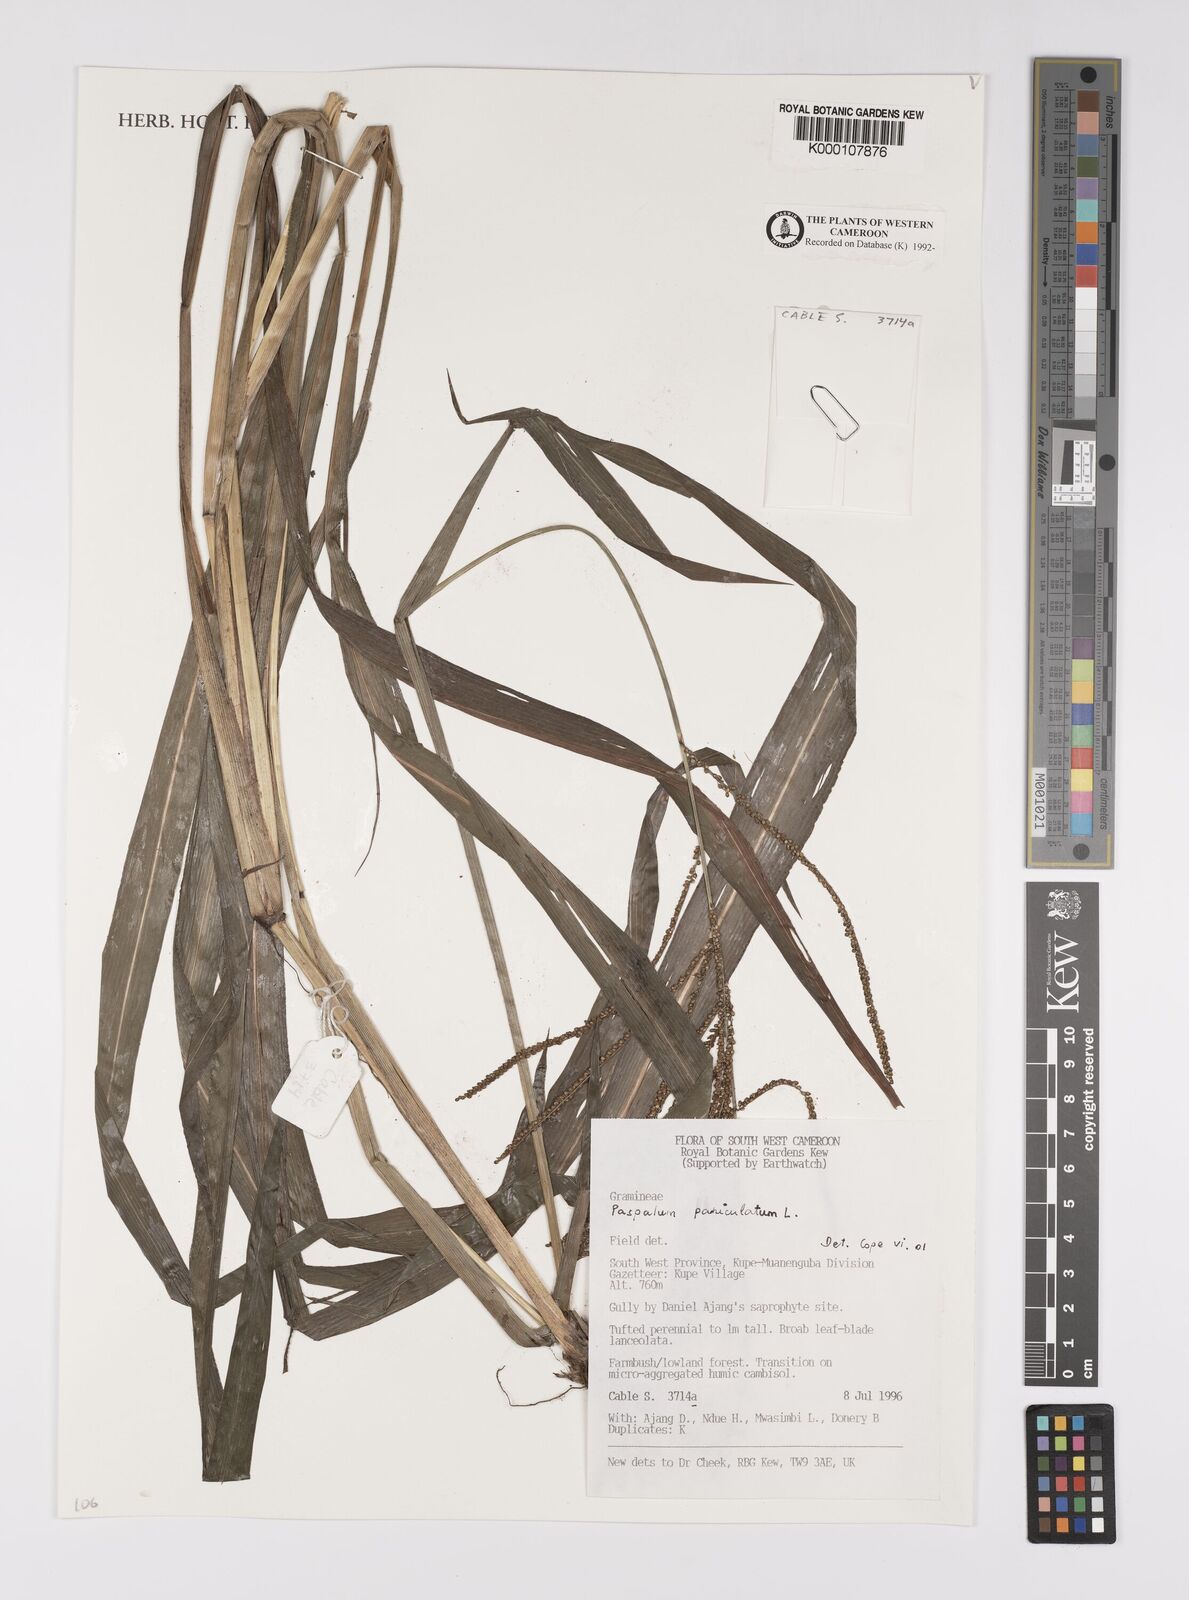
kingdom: Plantae
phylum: Tracheophyta
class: Liliopsida
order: Poales
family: Poaceae
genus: Paspalum
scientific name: Paspalum paniculatum
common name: Arrocillo
